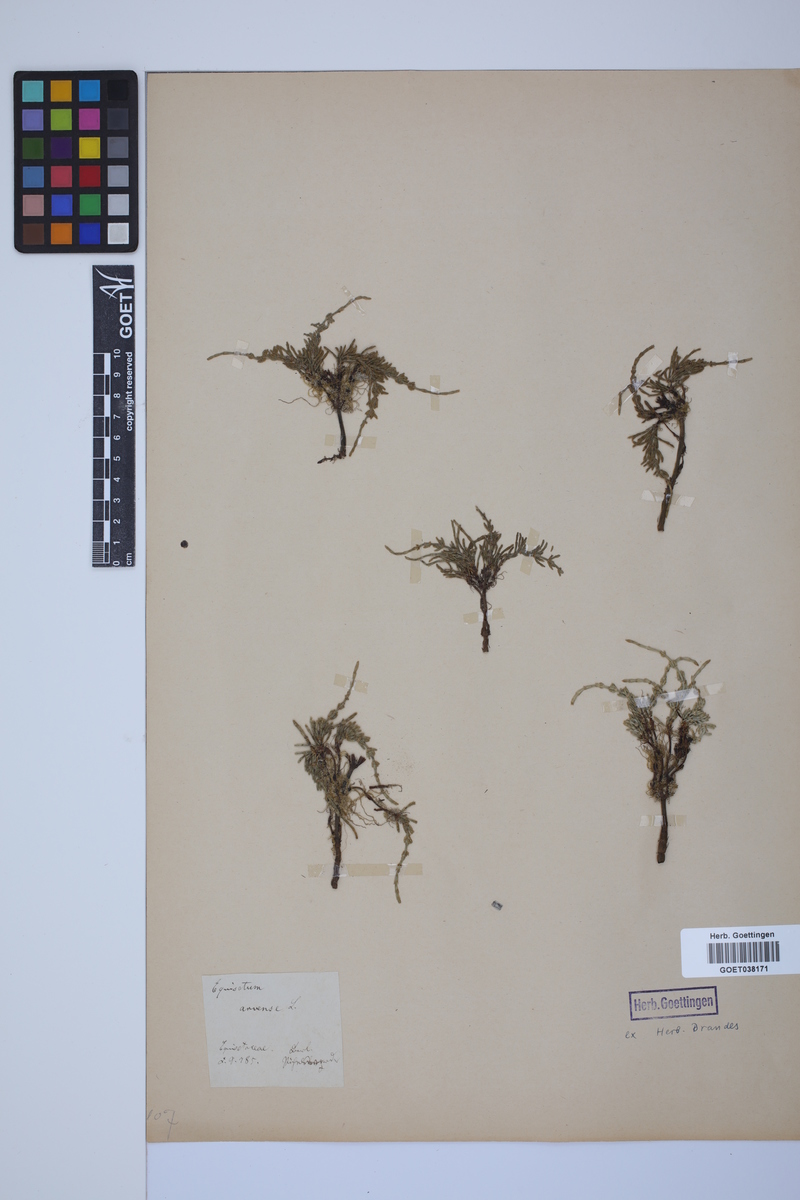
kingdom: Plantae
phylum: Tracheophyta
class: Polypodiopsida
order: Equisetales
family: Equisetaceae
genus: Equisetum
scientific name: Equisetum arvense
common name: Field horsetail
